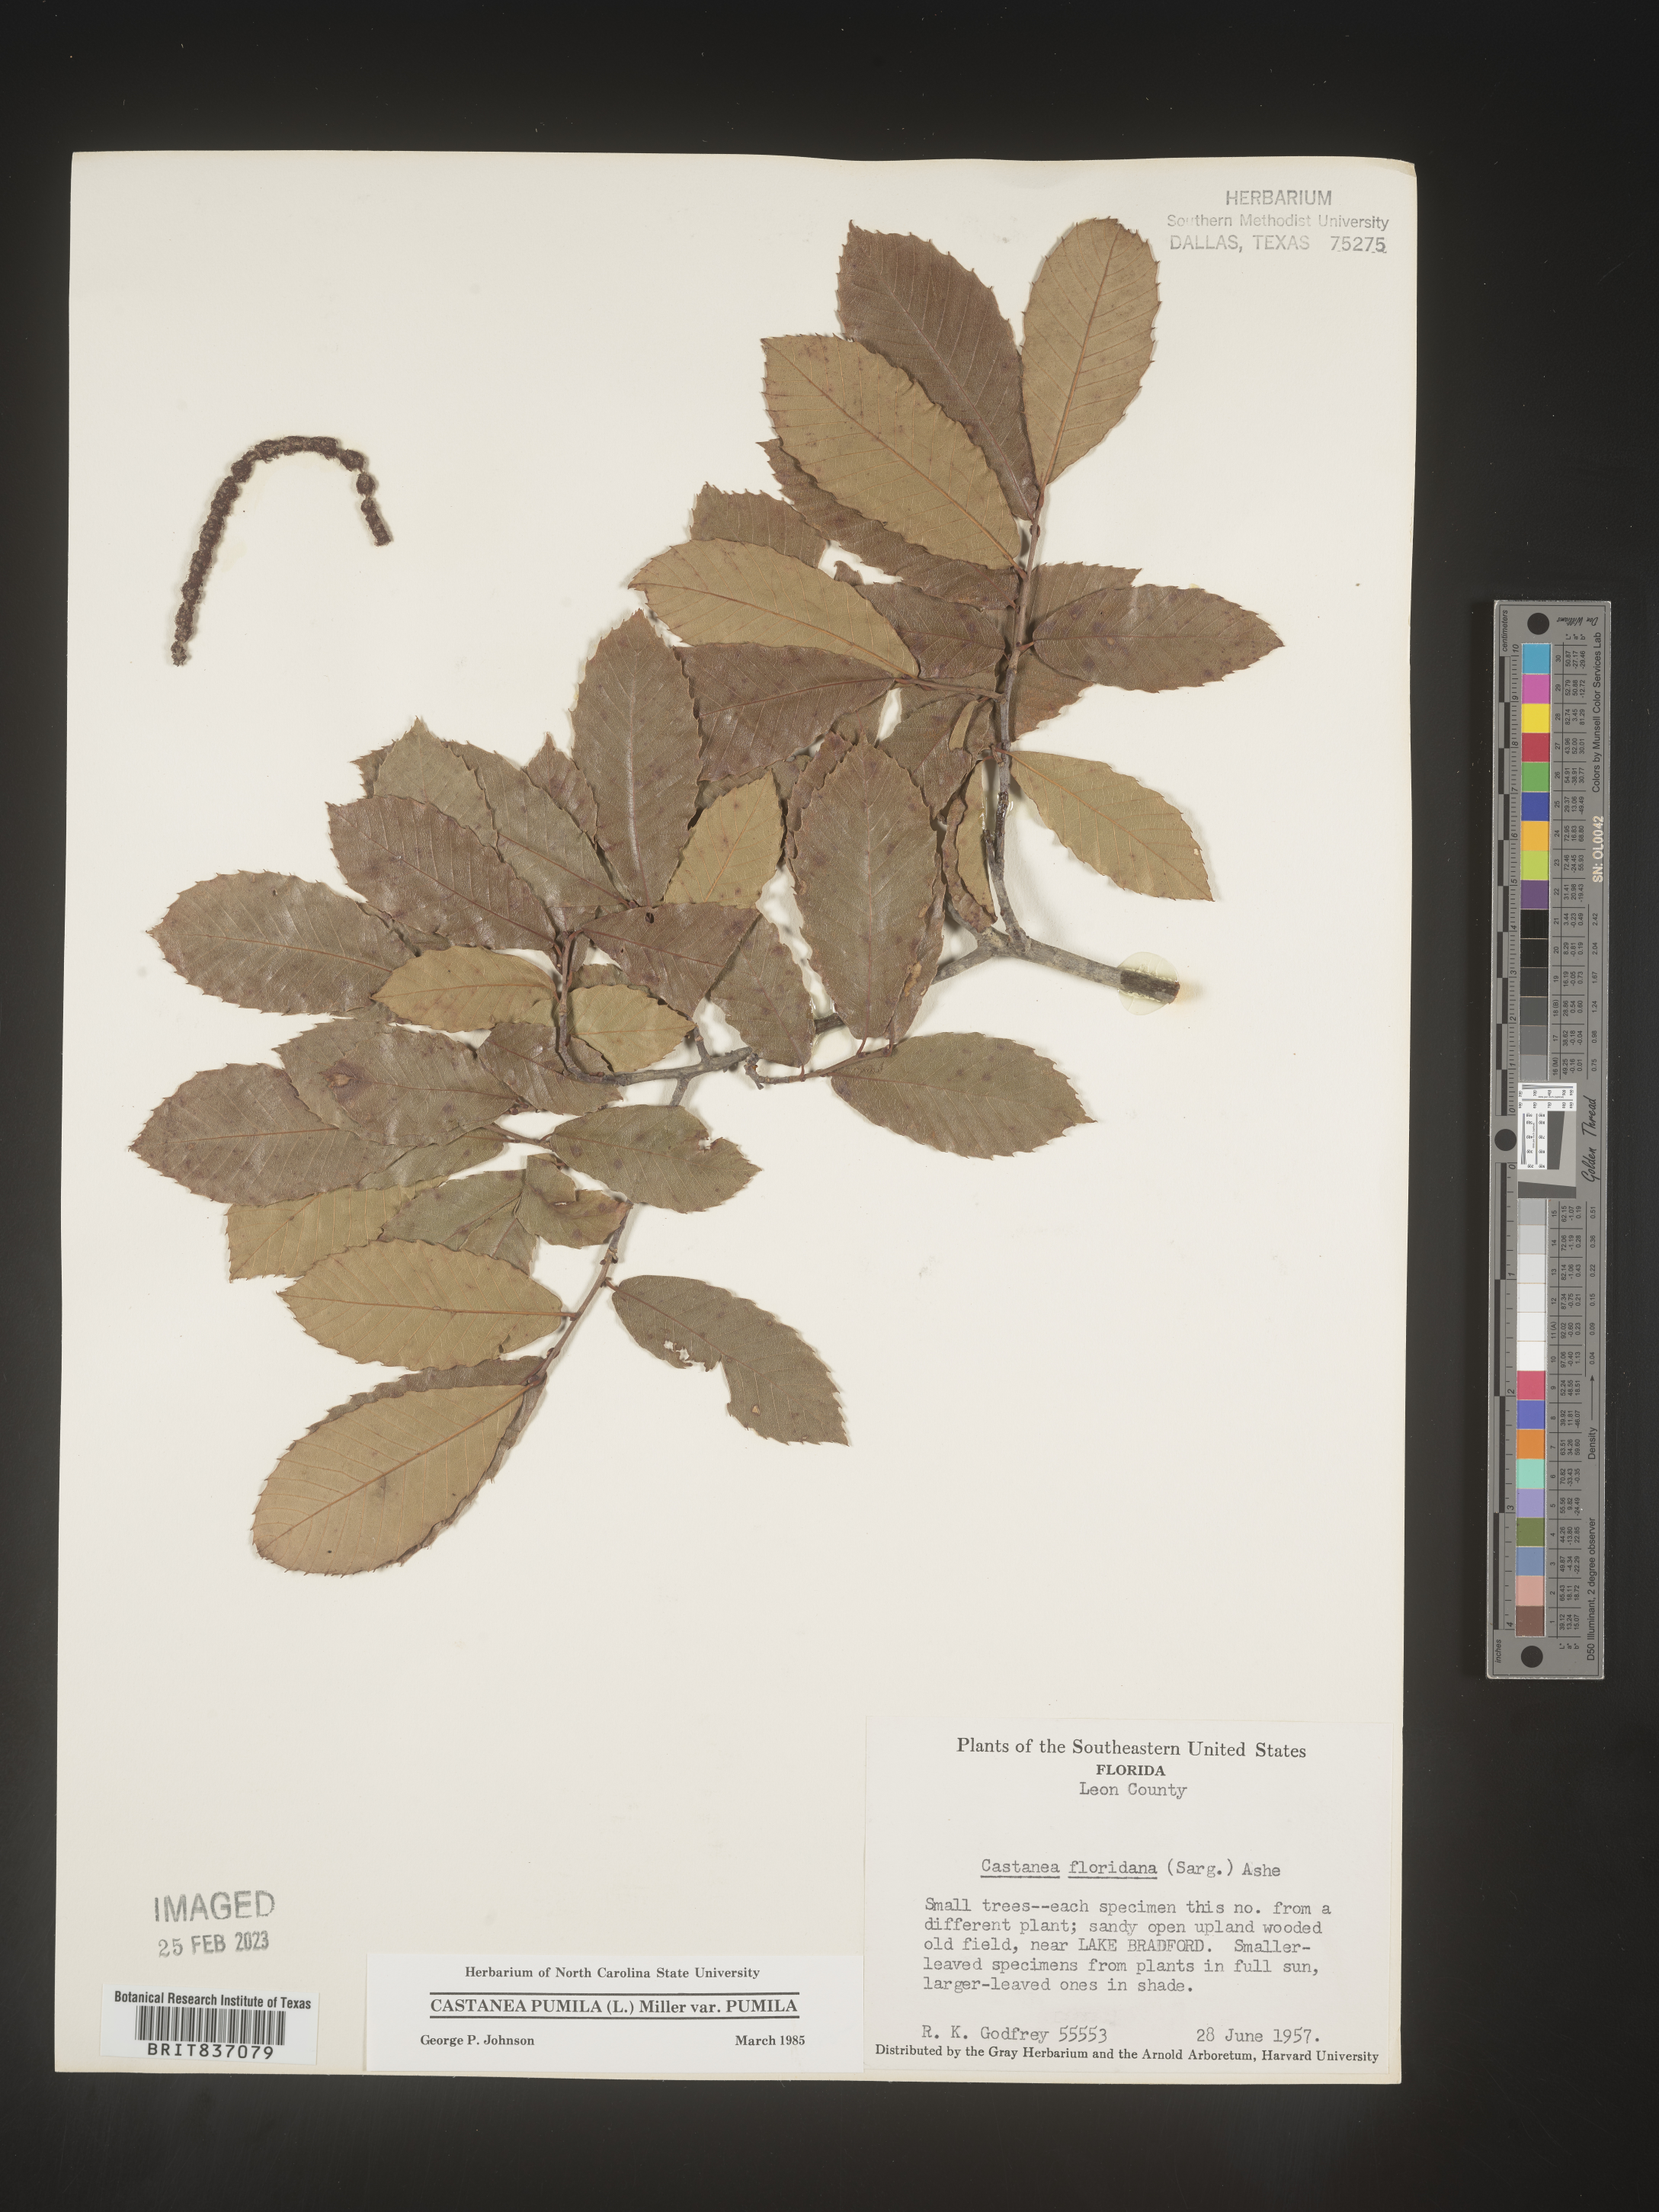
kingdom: Plantae
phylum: Tracheophyta
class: Magnoliopsida
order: Fagales
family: Fagaceae
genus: Castanea
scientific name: Castanea pumila
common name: Chinkapin
